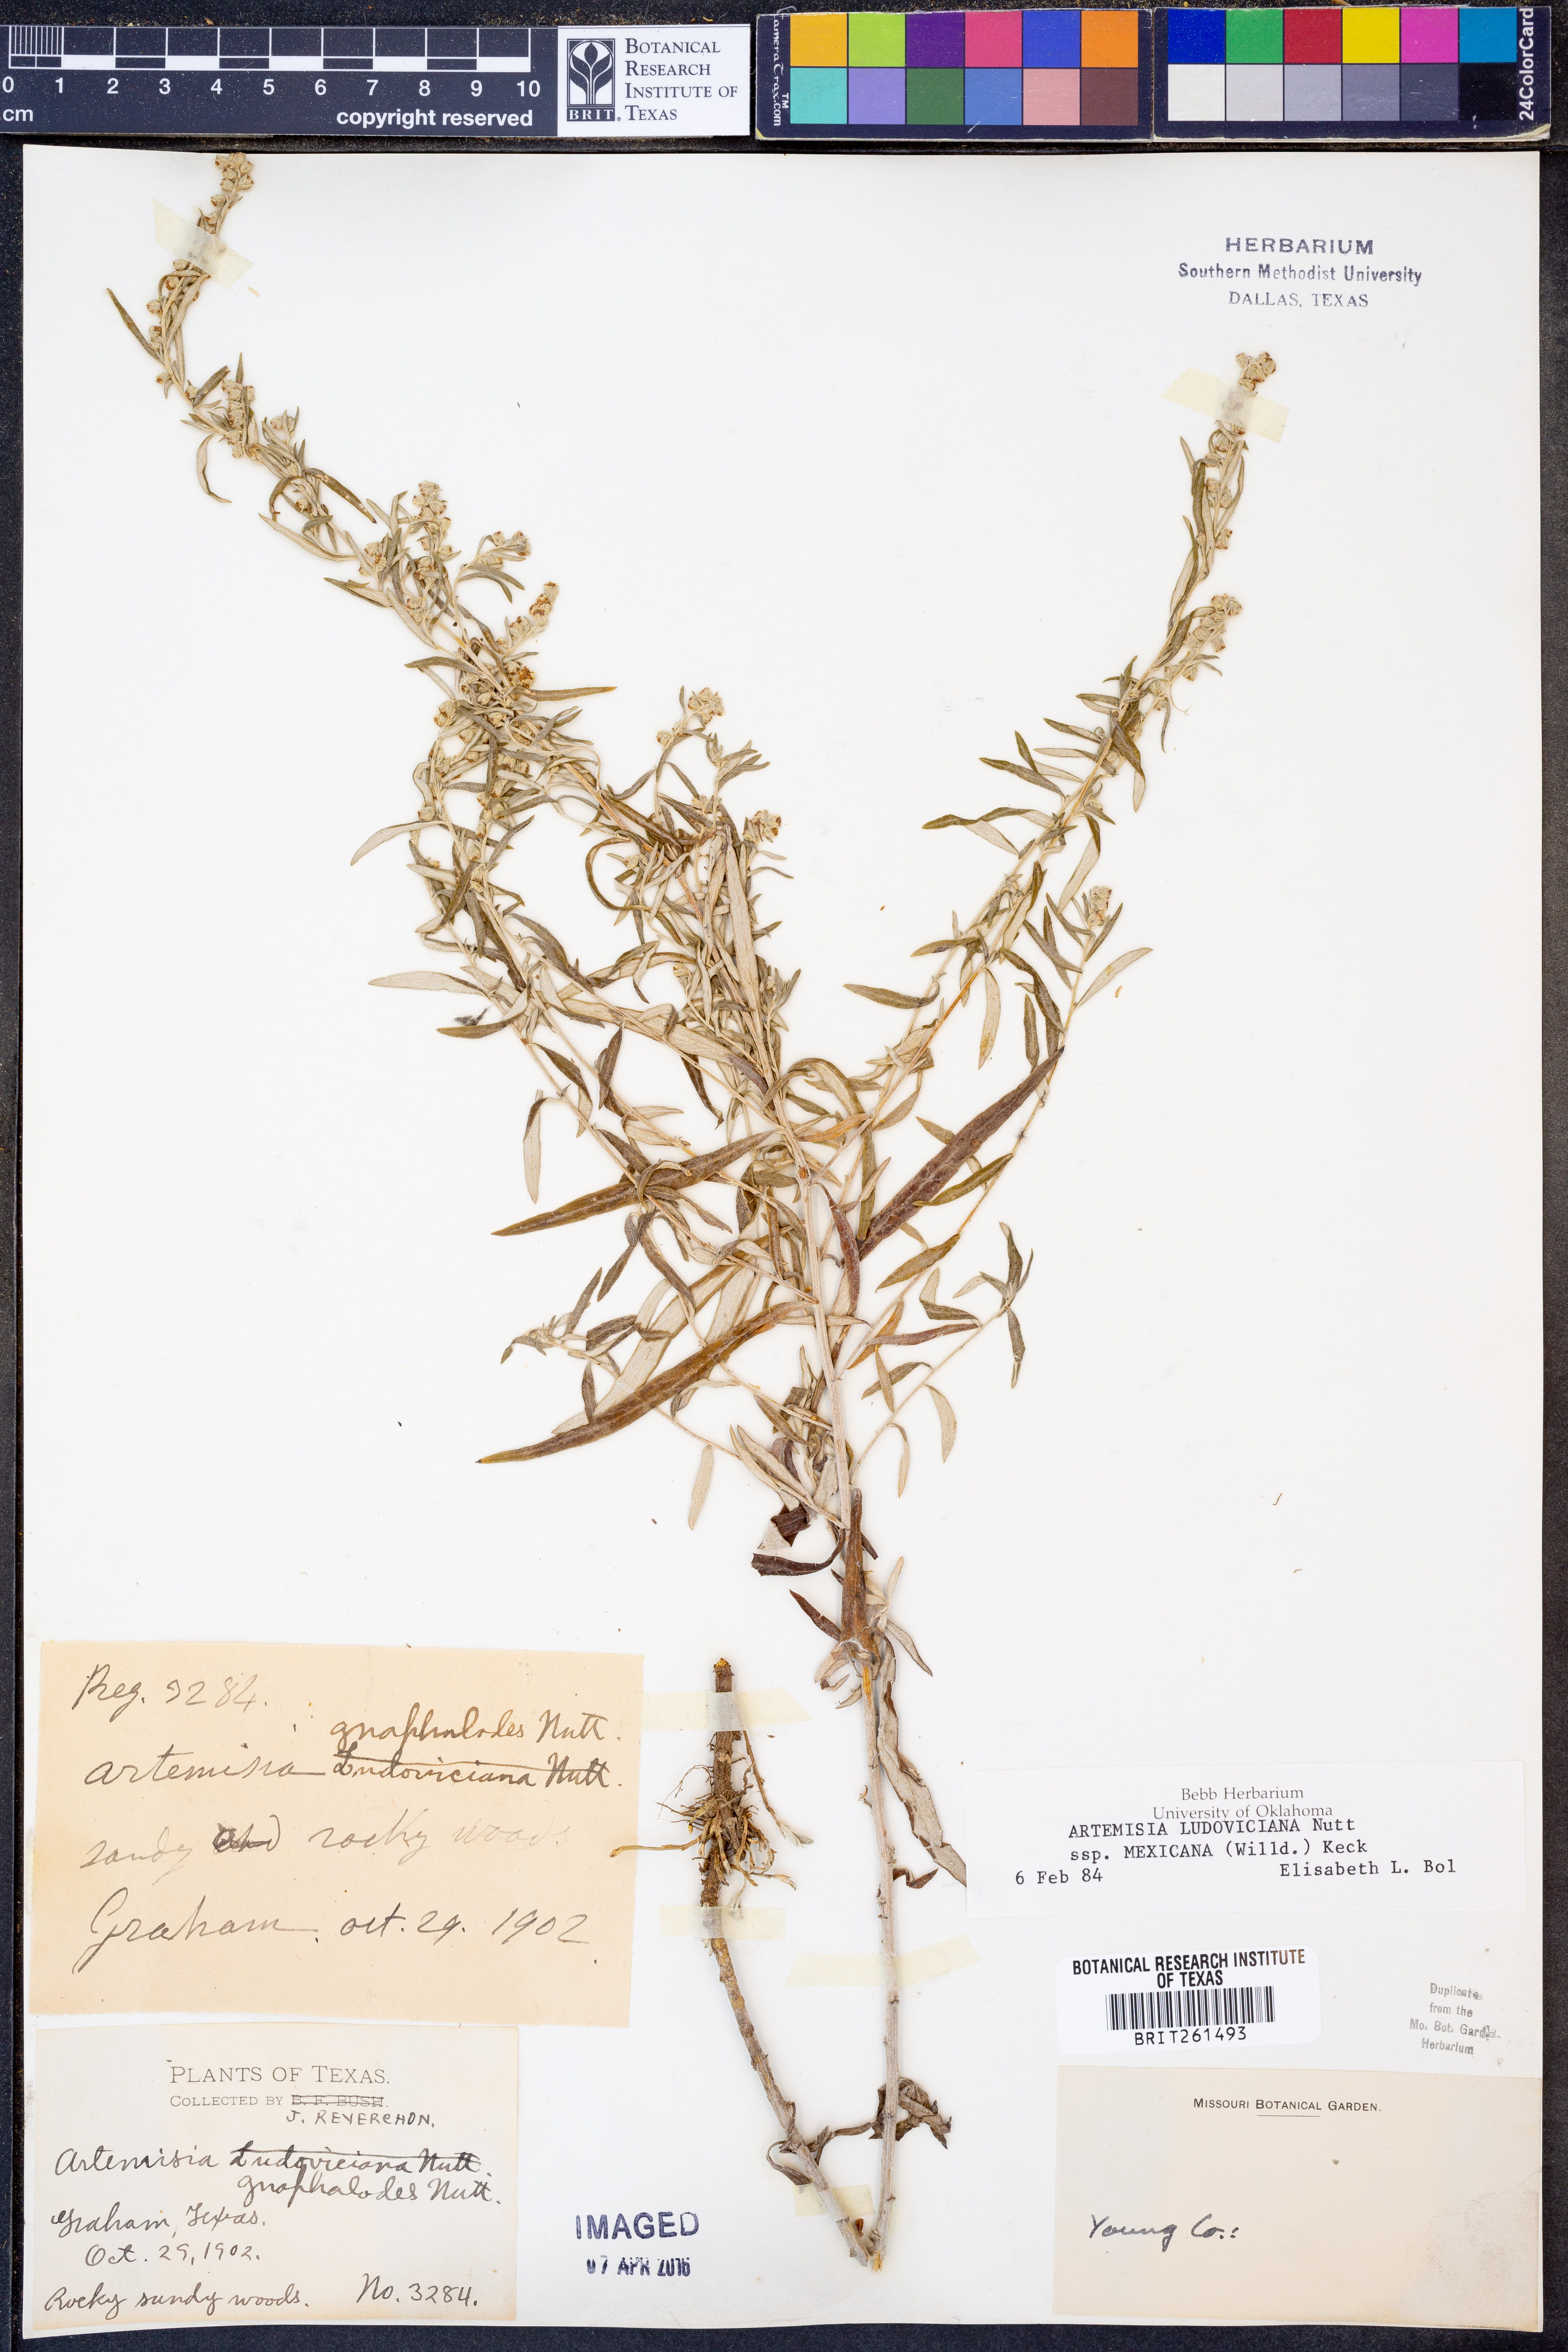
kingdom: Plantae
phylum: Tracheophyta
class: Magnoliopsida
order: Asterales
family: Asteraceae
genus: Artemisia
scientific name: Artemisia ludoviciana
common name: Western mugwort
